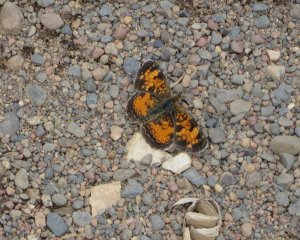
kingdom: Animalia
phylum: Arthropoda
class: Insecta
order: Lepidoptera
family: Nymphalidae
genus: Phyciodes
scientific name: Phyciodes tharos
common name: Northern Crescent
